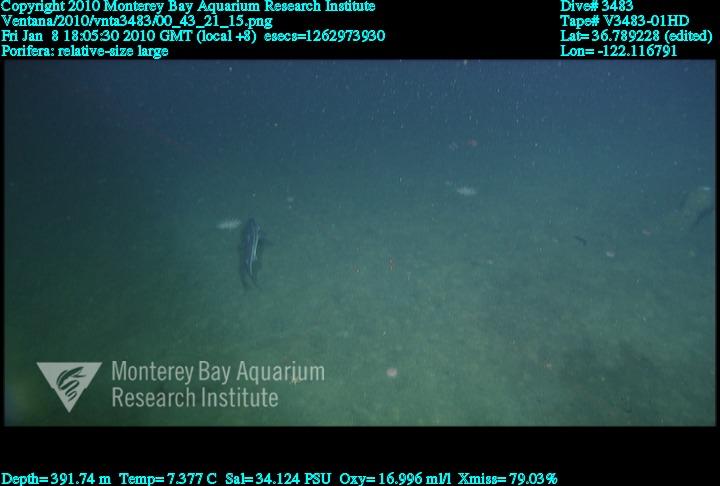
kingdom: Animalia
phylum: Porifera
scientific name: Porifera
